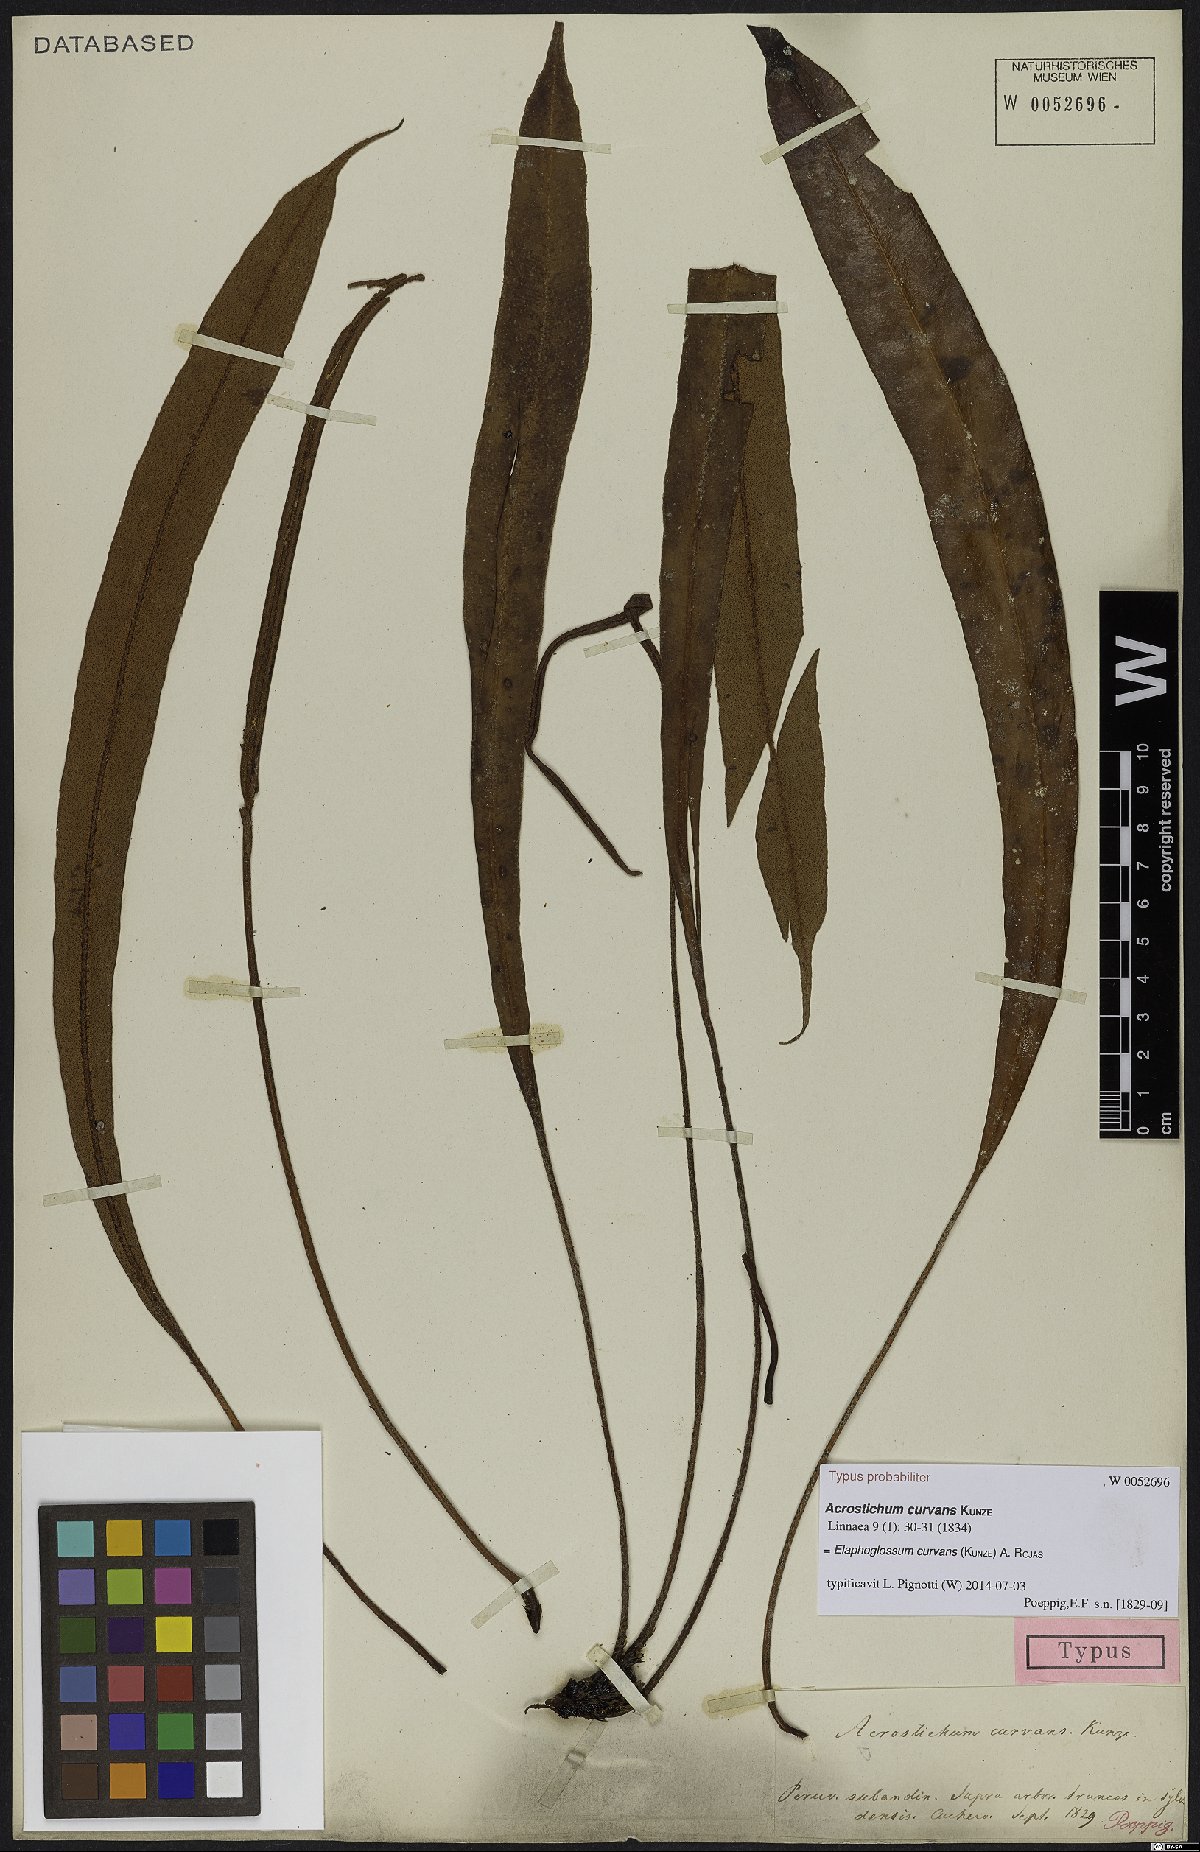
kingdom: Plantae
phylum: Tracheophyta
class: Polypodiopsida
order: Polypodiales
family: Dryopteridaceae
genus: Elaphoglossum
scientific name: Elaphoglossum curvans
